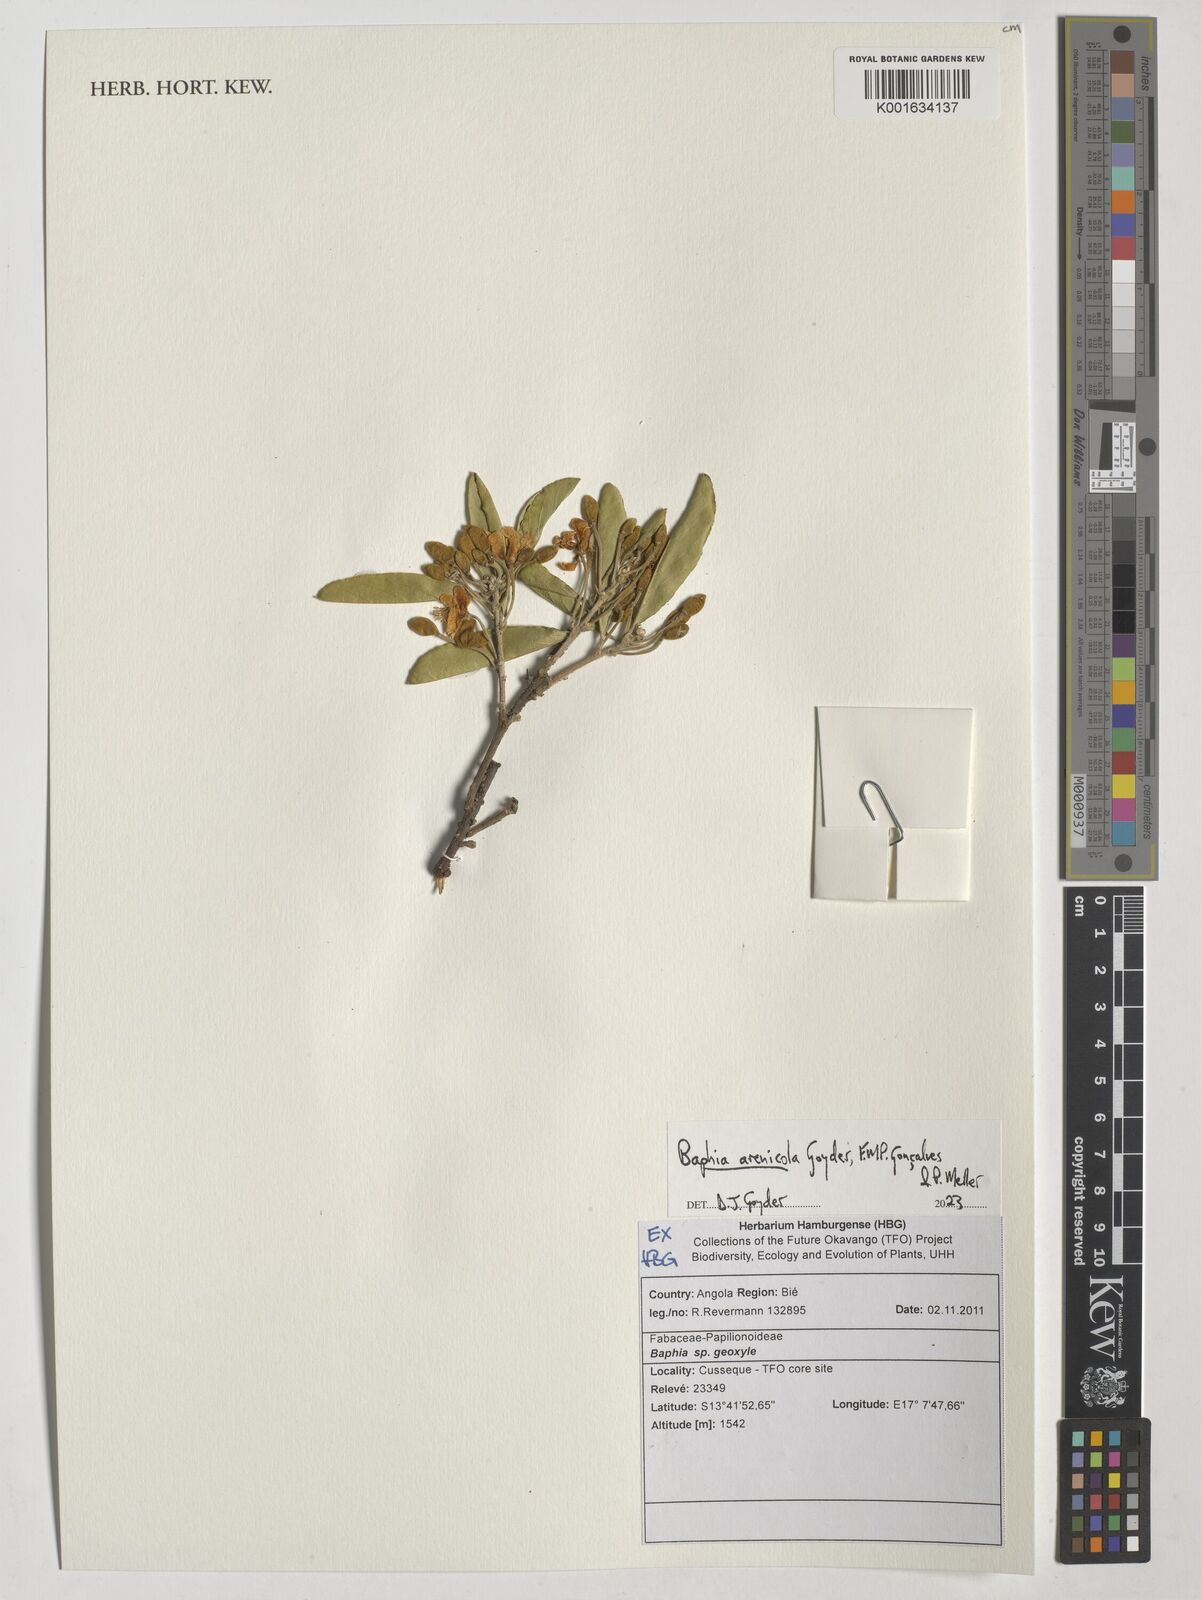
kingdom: Plantae
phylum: Tracheophyta
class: Magnoliopsida
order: Fabales
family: Fabaceae
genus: Baphia
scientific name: Baphia
